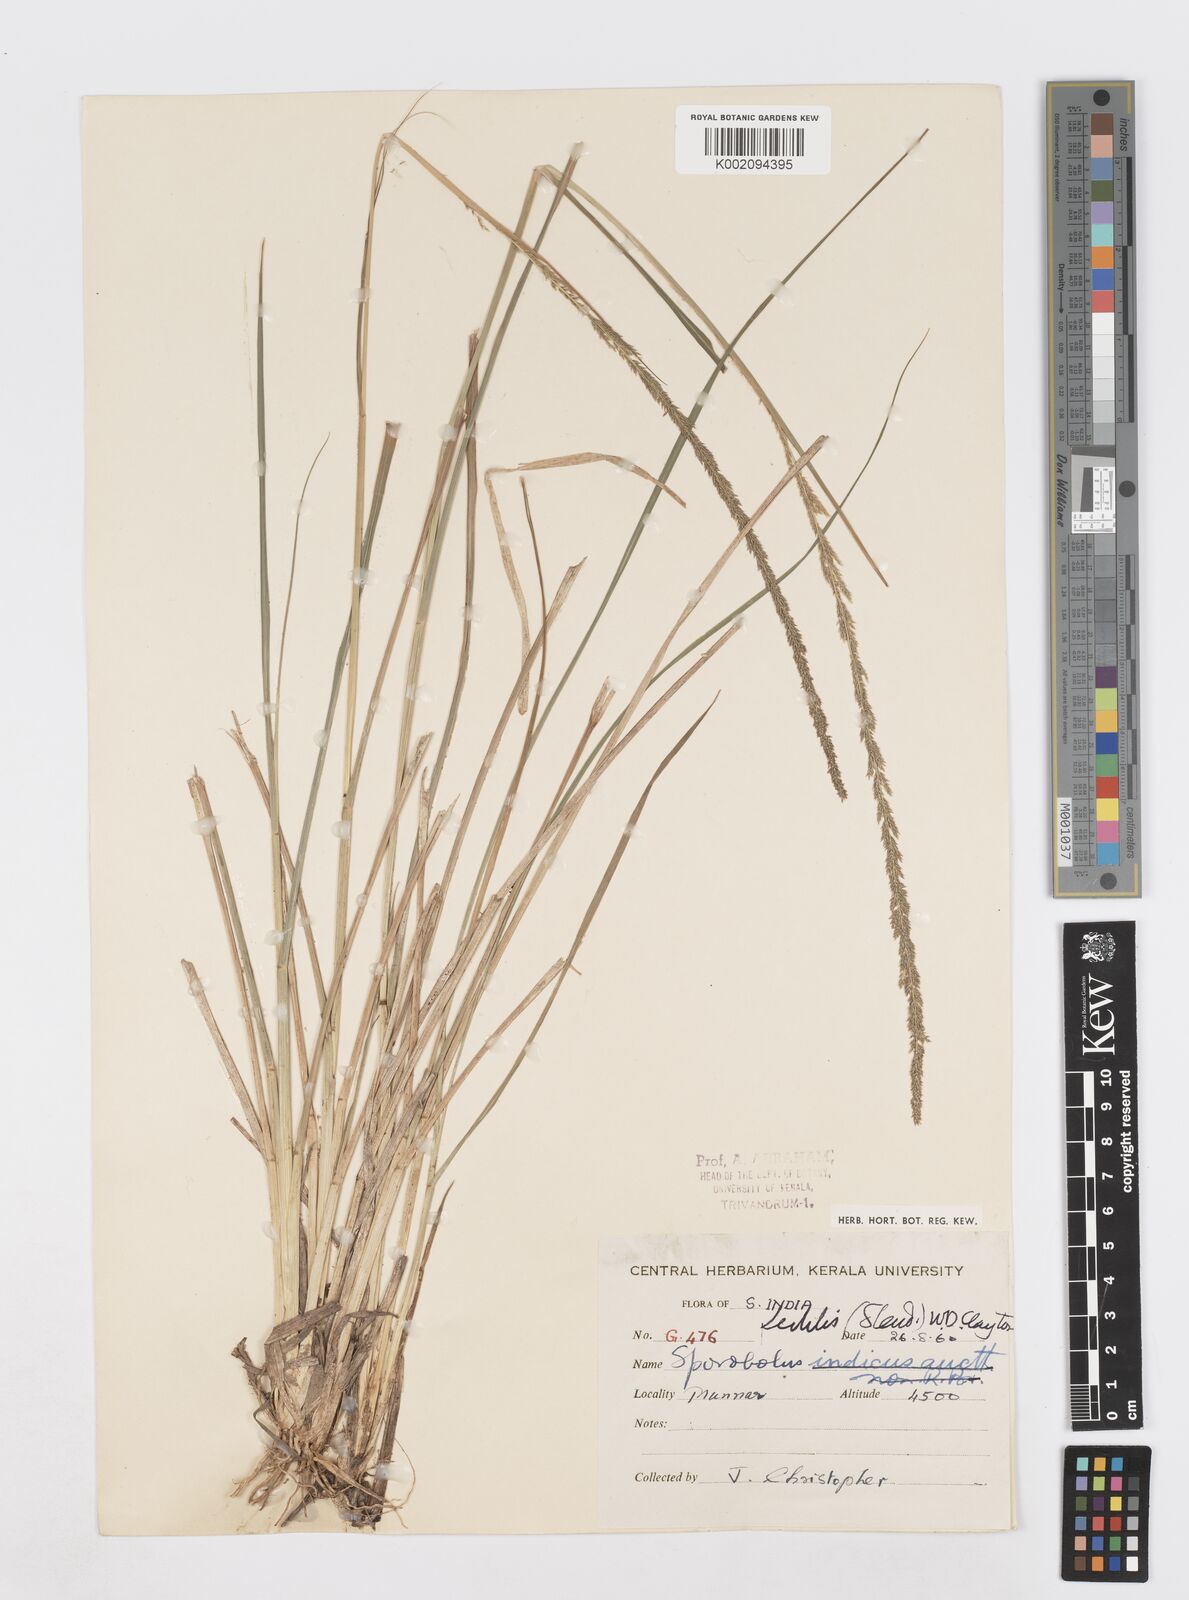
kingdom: Plantae
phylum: Tracheophyta
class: Liliopsida
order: Poales
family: Poaceae
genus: Sporobolus
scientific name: Sporobolus fertilis
